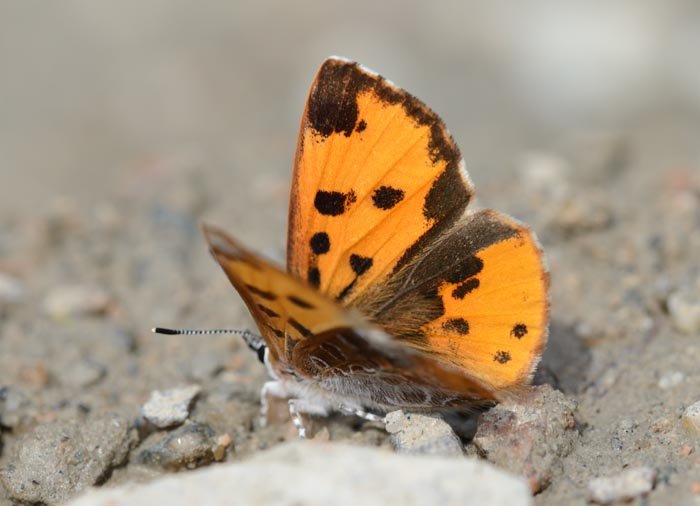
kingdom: Animalia
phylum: Arthropoda
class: Insecta
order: Lepidoptera
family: Lycaenidae
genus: Feniseca
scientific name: Feniseca tarquinius
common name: Harvester
